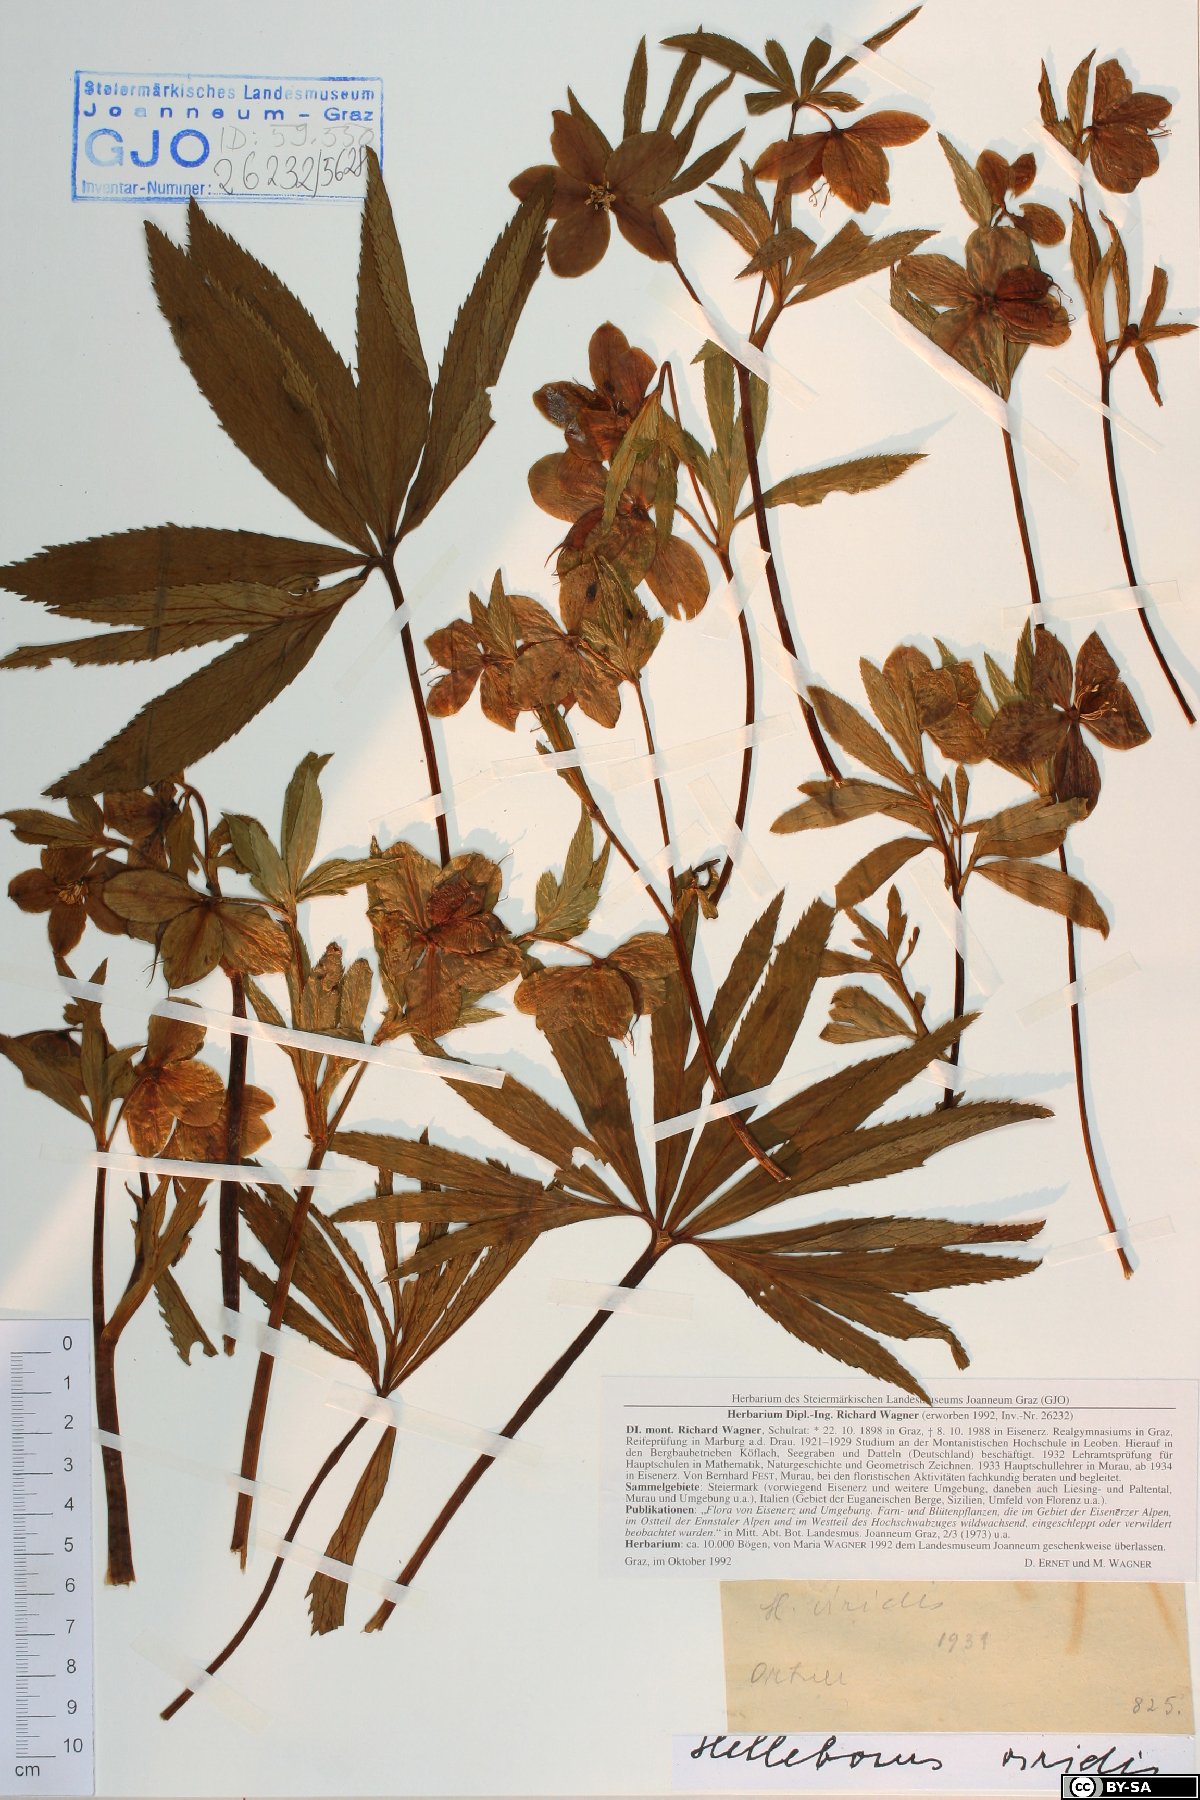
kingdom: Plantae
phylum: Tracheophyta
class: Magnoliopsida
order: Ranunculales
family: Ranunculaceae
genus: Helleborus
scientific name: Helleborus viridis
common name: Green hellebore
